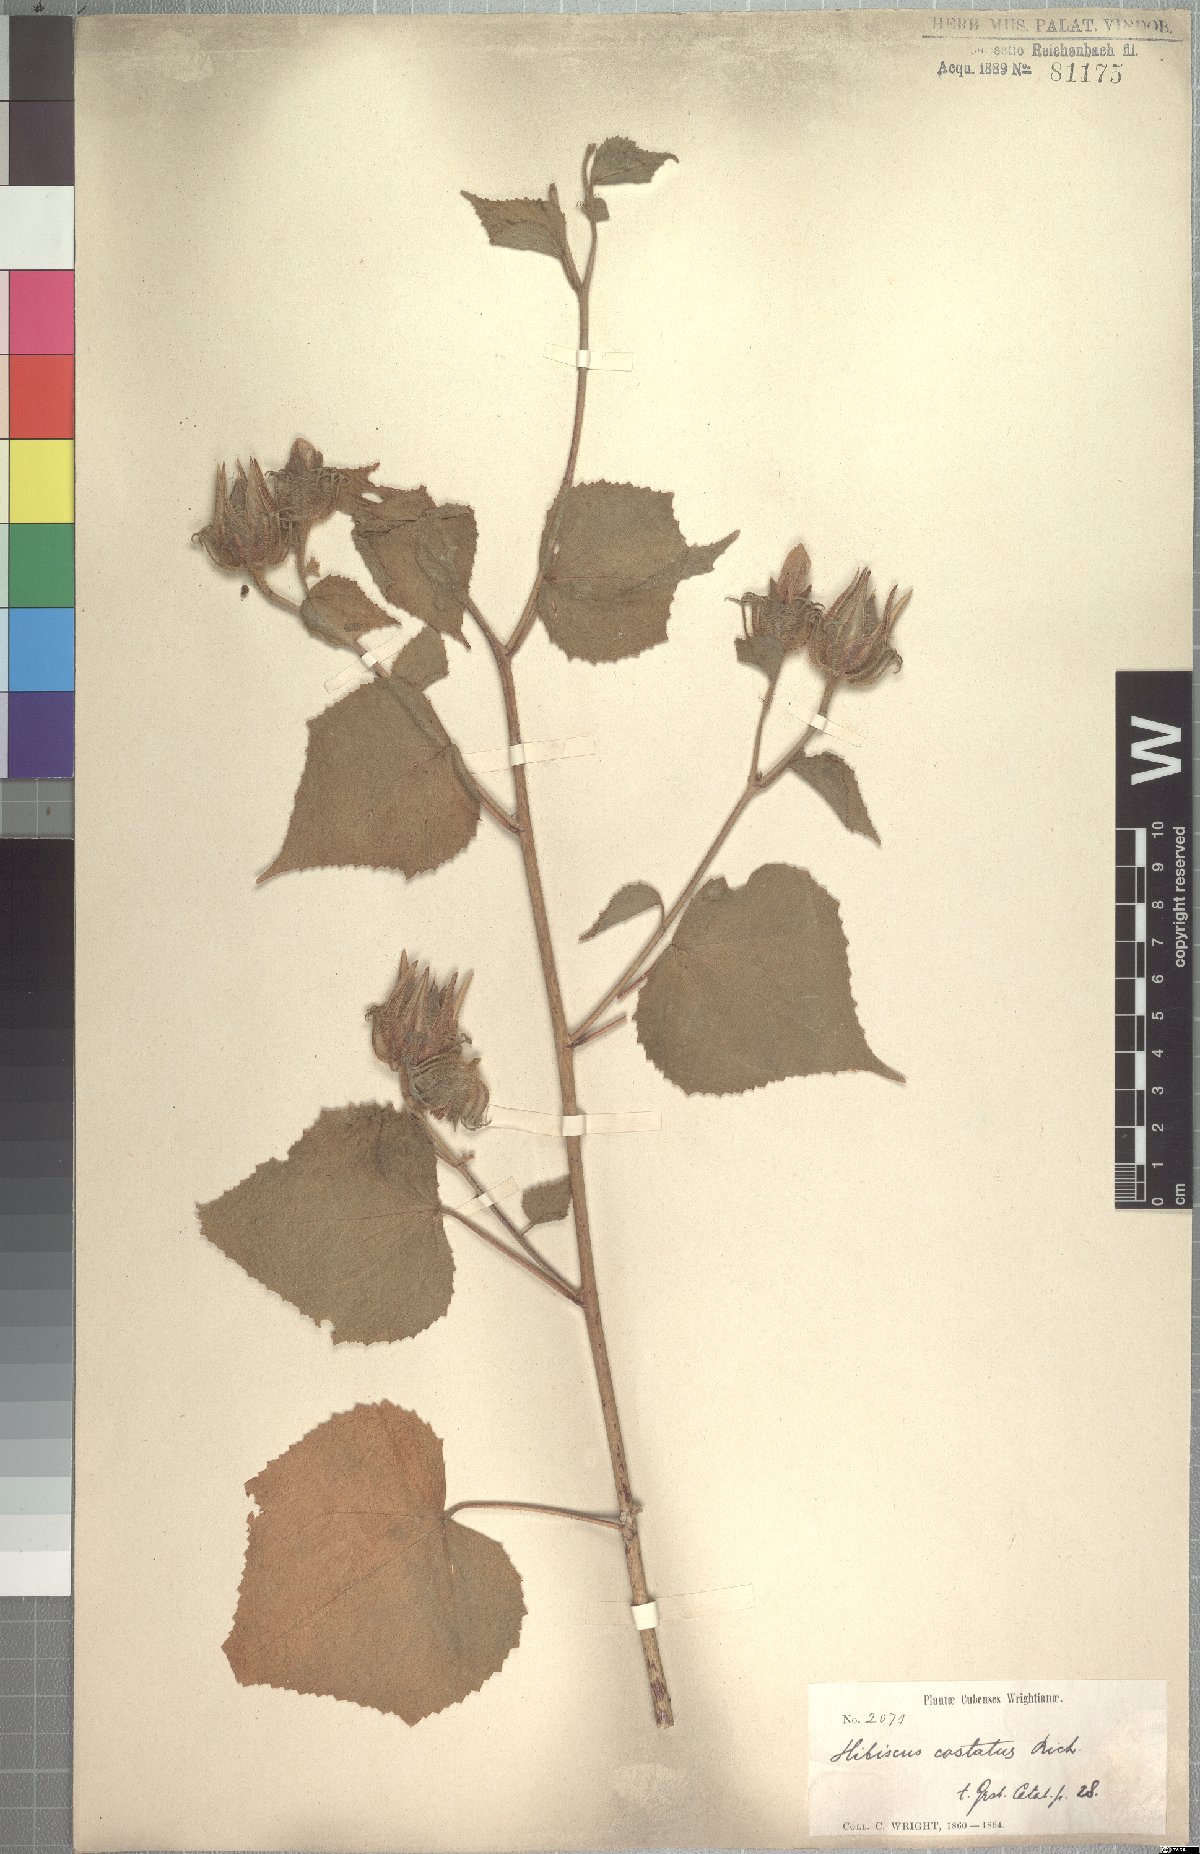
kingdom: Plantae
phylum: Tracheophyta
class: Magnoliopsida
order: Malvales
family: Malvaceae
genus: Hibiscus
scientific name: Hibiscus costatus
